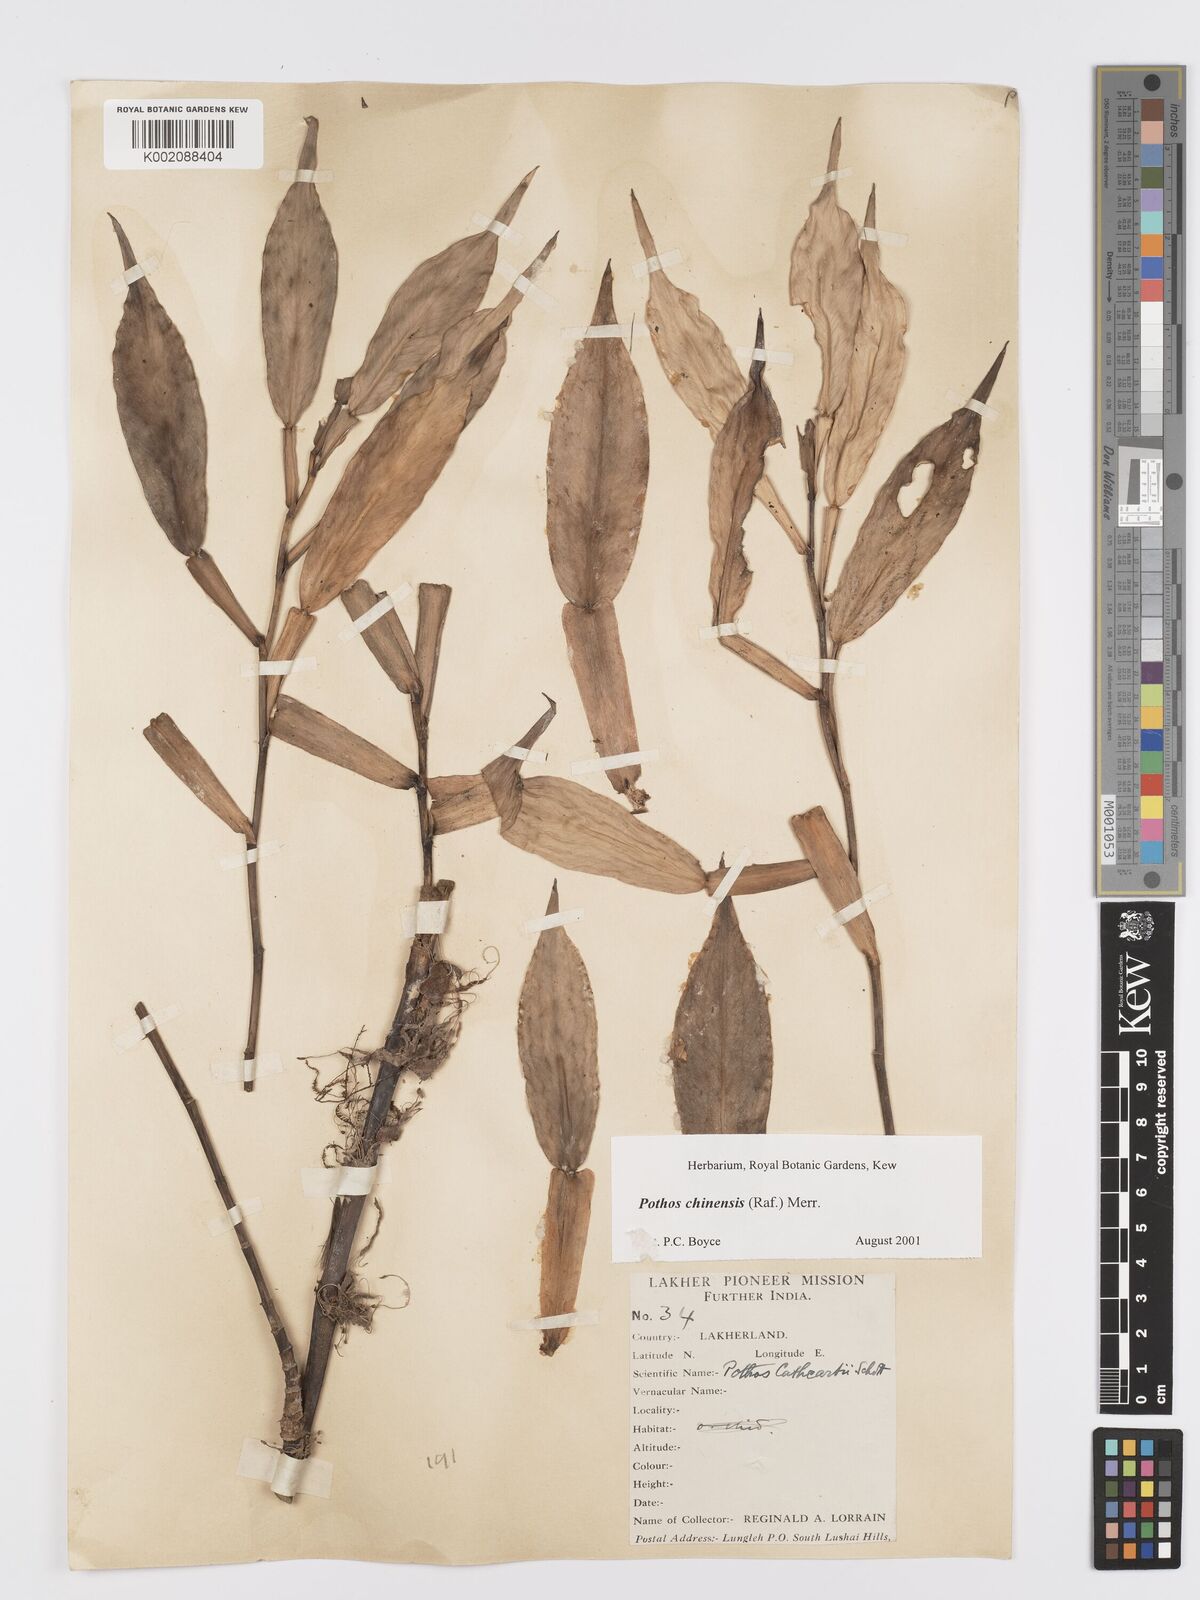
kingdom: Plantae
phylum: Tracheophyta
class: Liliopsida
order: Alismatales
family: Araceae
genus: Pothos
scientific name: Pothos chinensis
